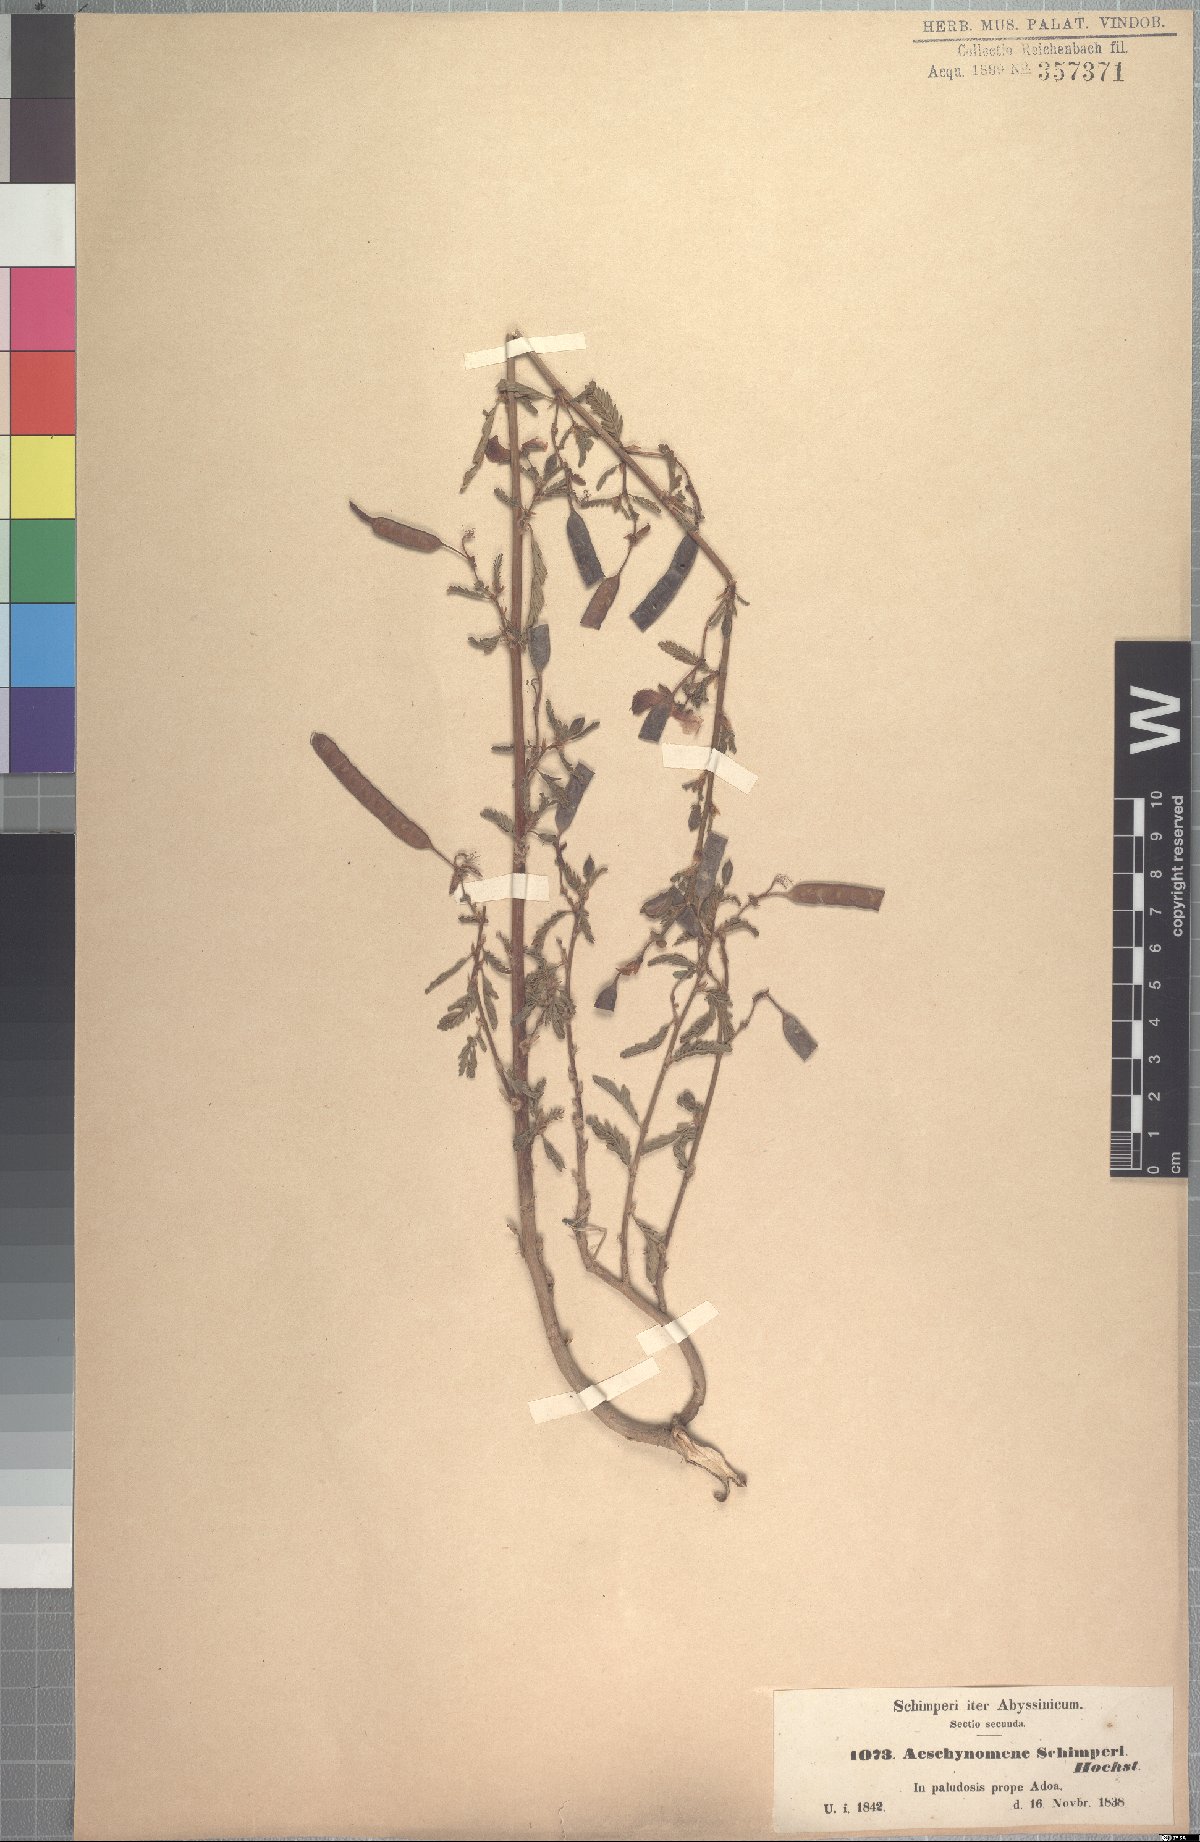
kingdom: Plantae
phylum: Tracheophyta
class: Magnoliopsida
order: Fabales
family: Fabaceae
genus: Aeschynomene
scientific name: Aeschynomene schimperi
